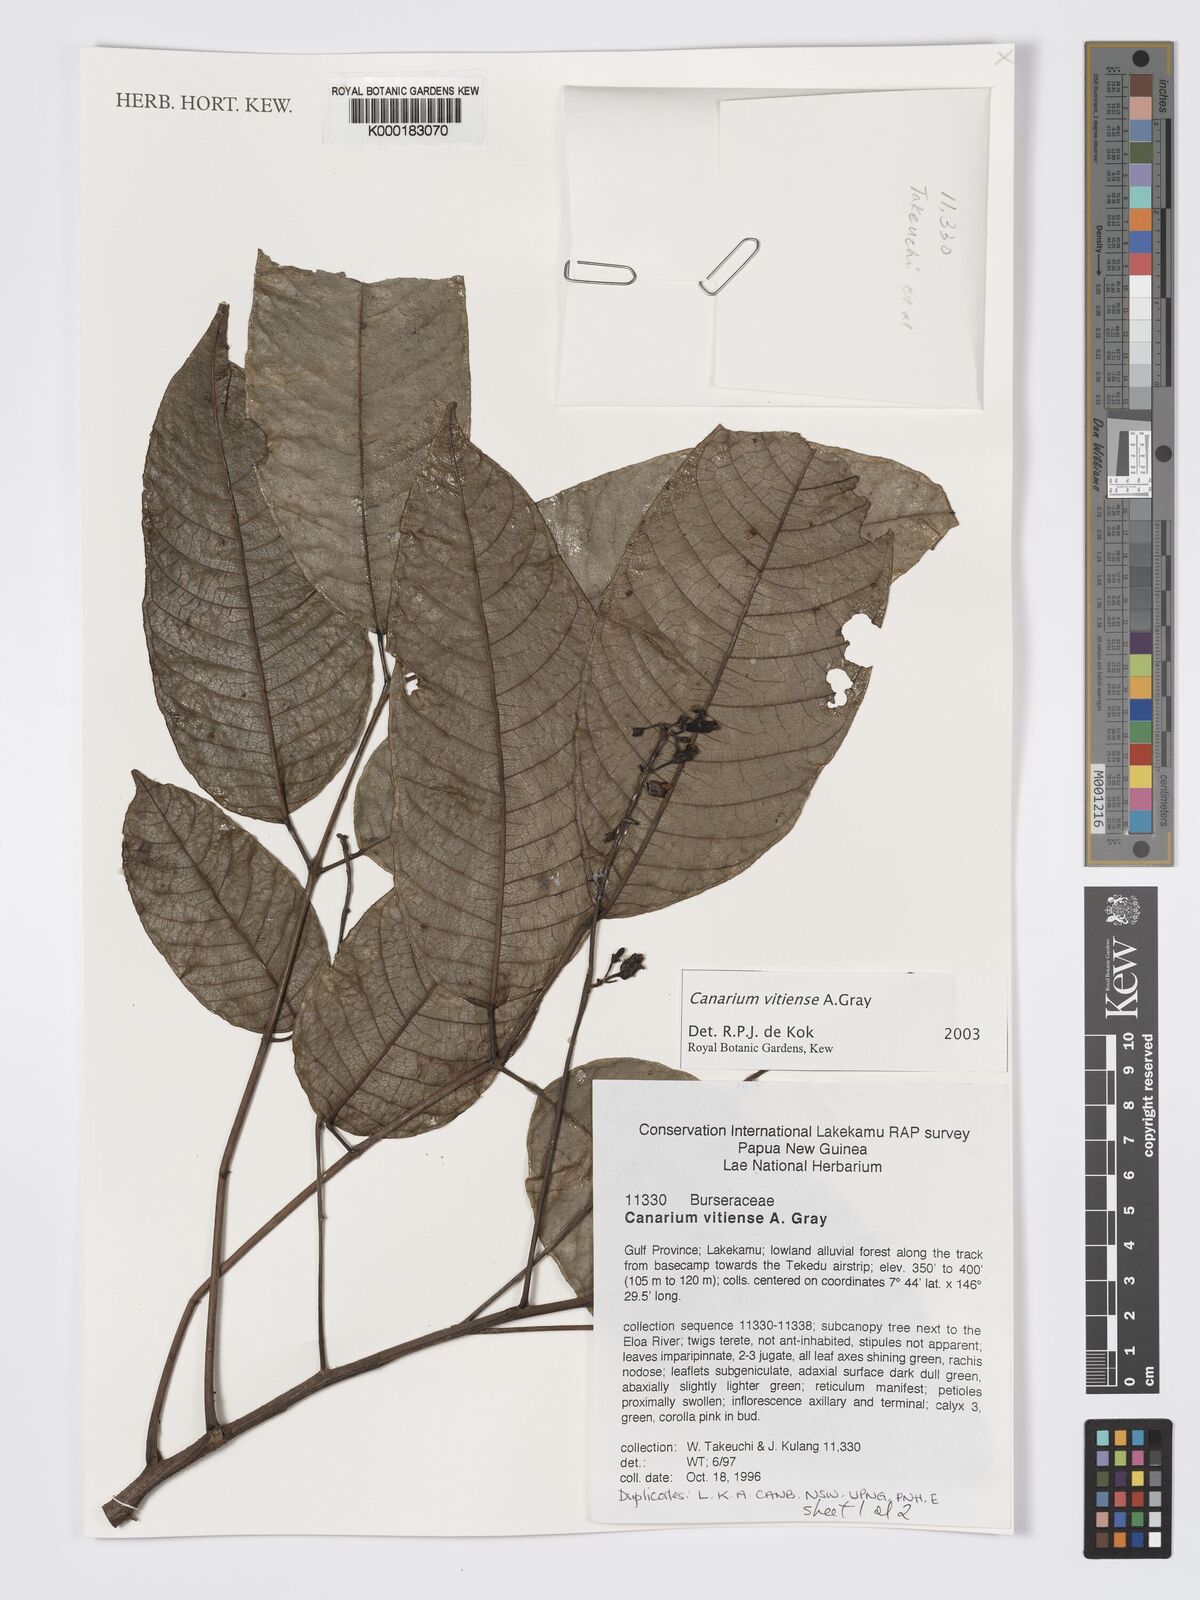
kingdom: Plantae
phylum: Tracheophyta
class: Magnoliopsida
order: Sapindales
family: Burseraceae
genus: Canarium
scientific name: Canarium vitiense
